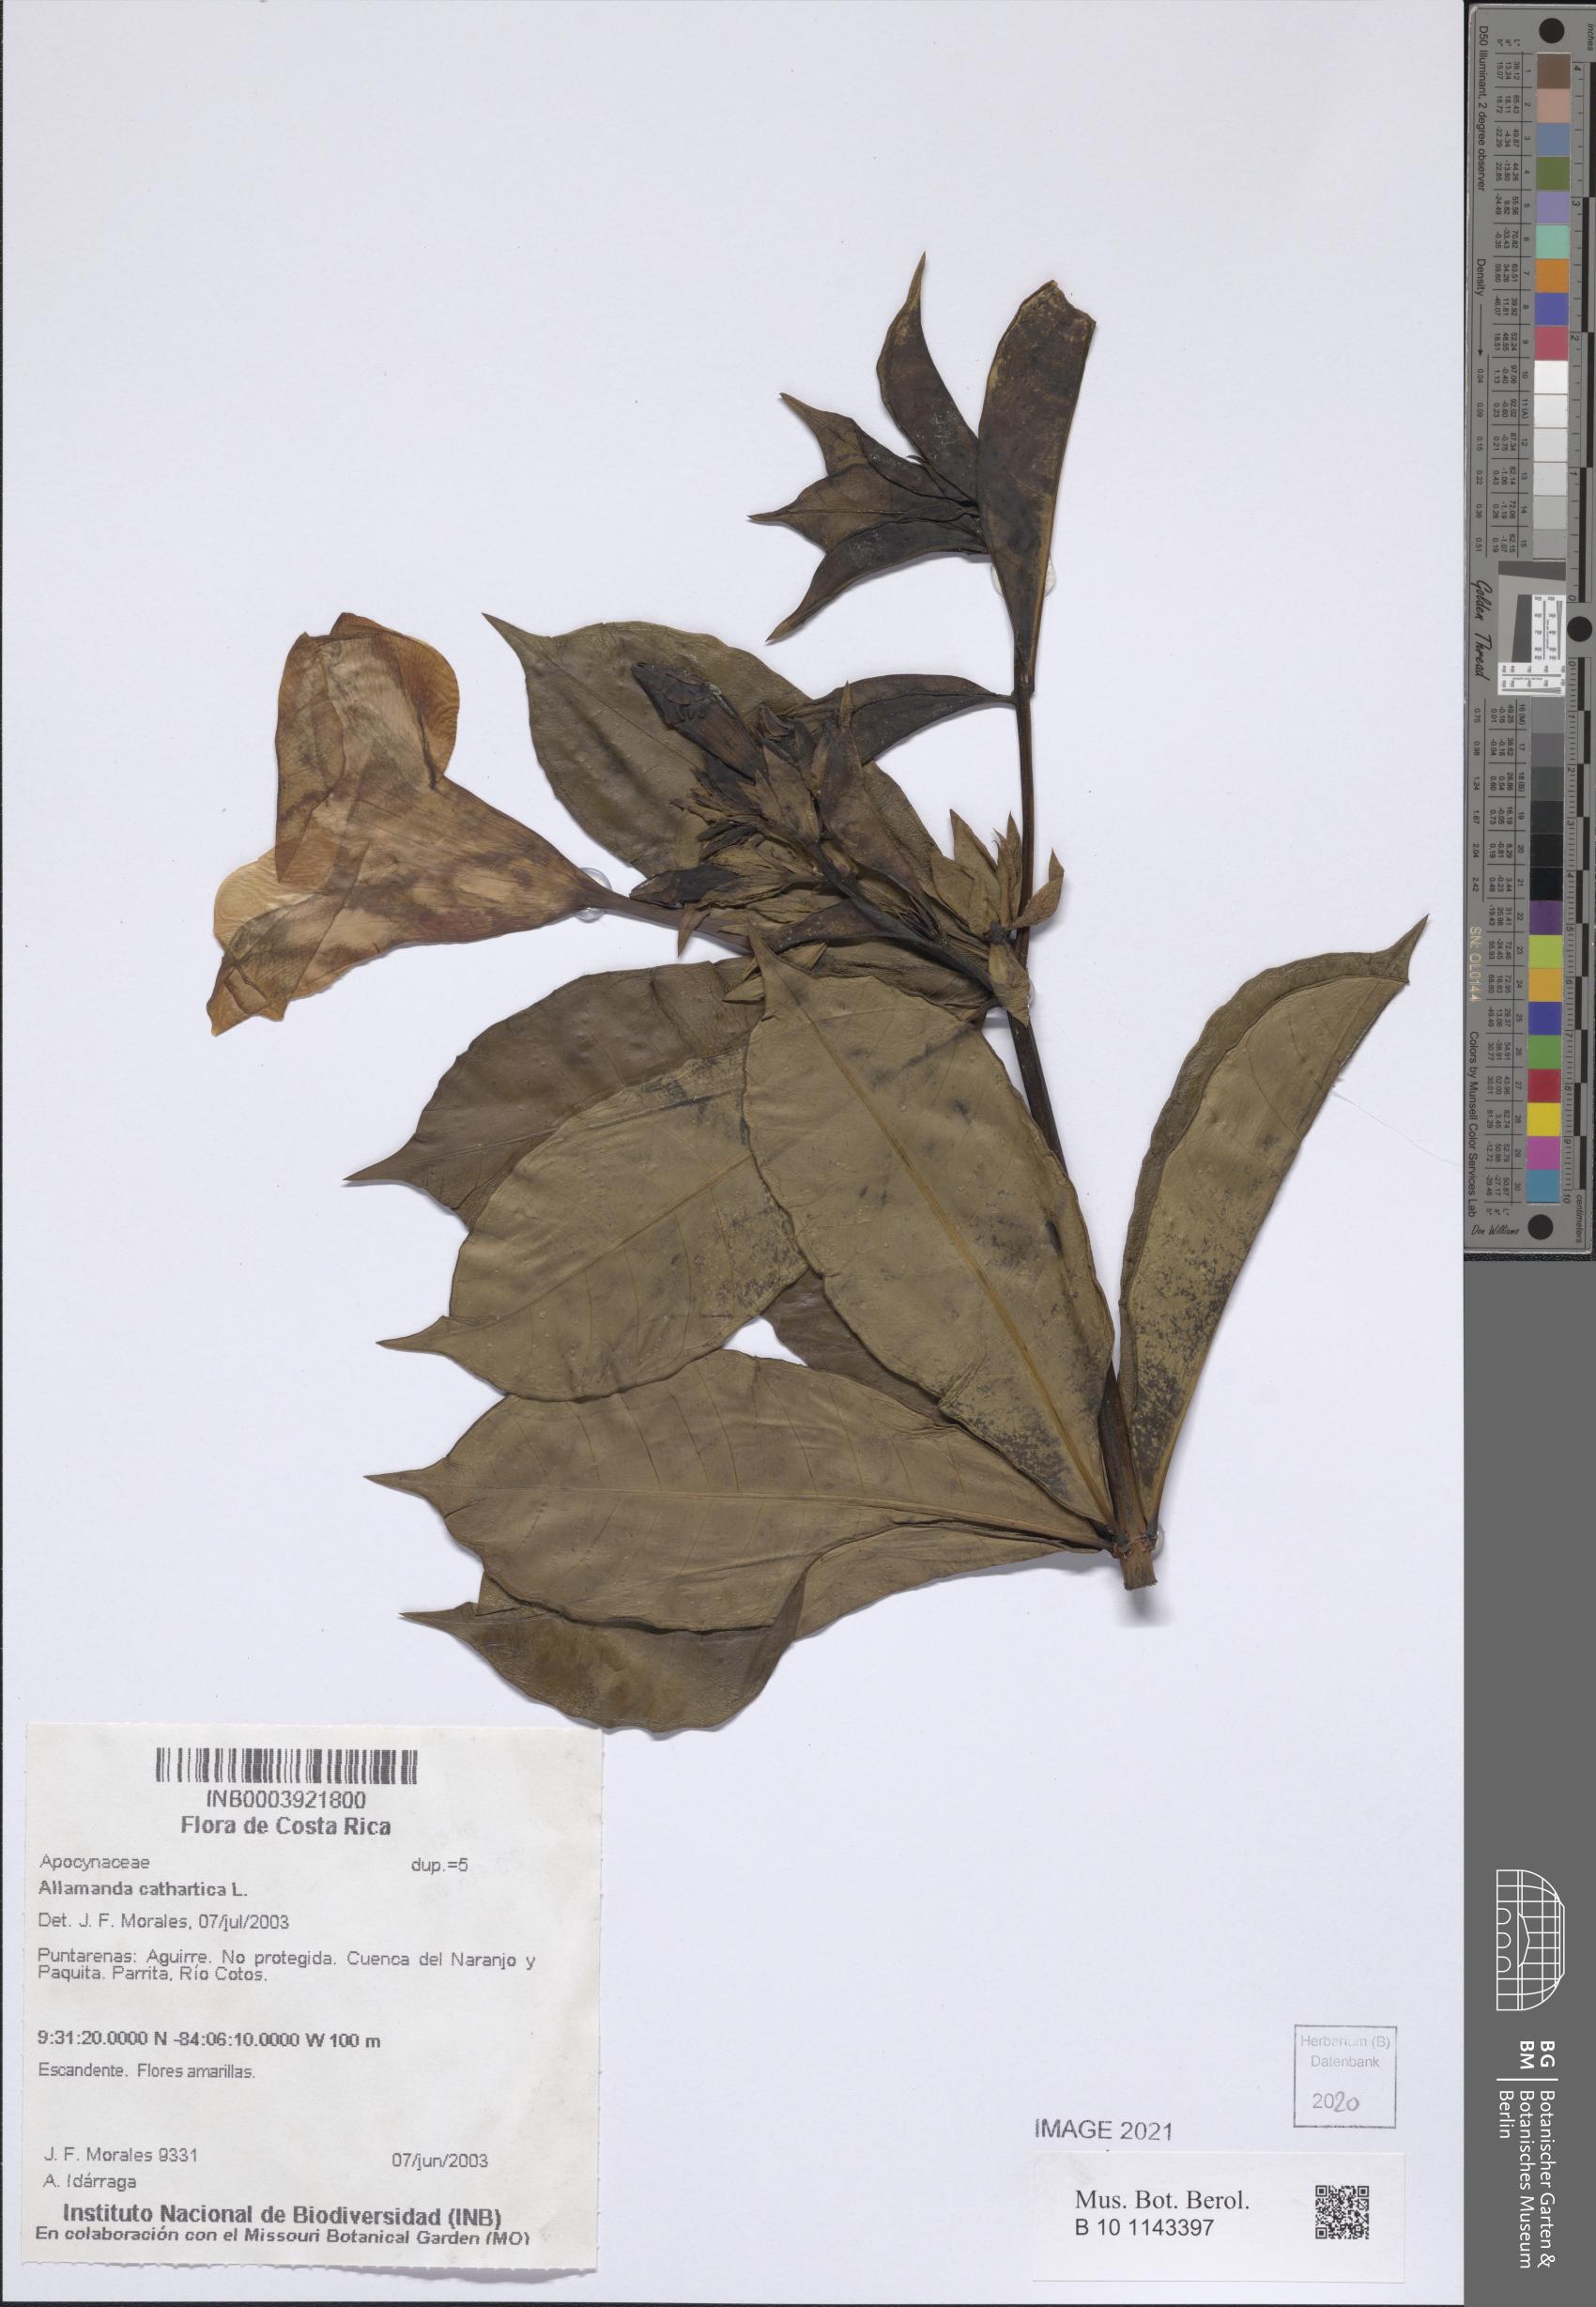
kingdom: Plantae
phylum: Tracheophyta
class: Magnoliopsida
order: Gentianales
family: Apocynaceae
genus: Allamanda
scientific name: Allamanda cathartica
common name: Golden trumpet
